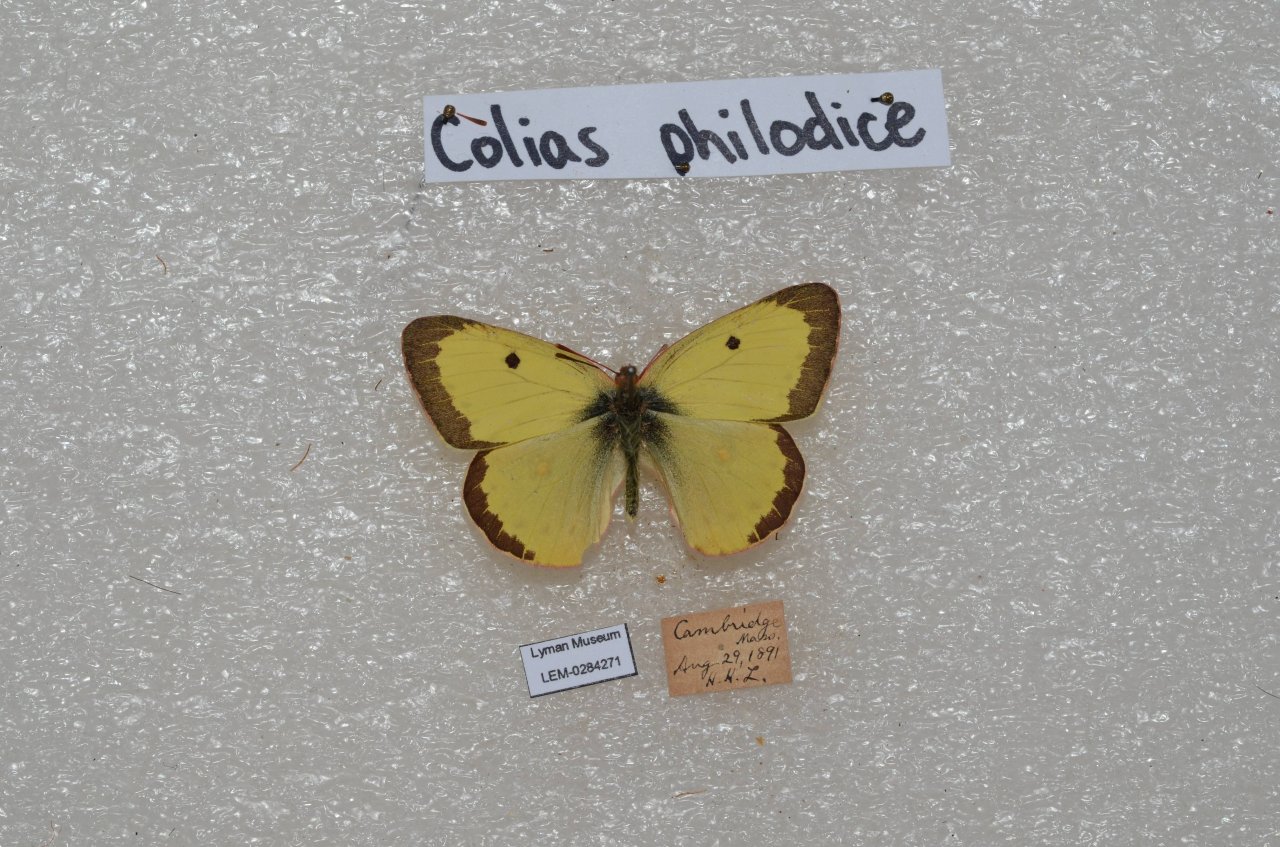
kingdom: Animalia
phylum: Arthropoda
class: Insecta
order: Lepidoptera
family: Pieridae
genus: Colias
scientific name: Colias philodice
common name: Clouded Sulphur
